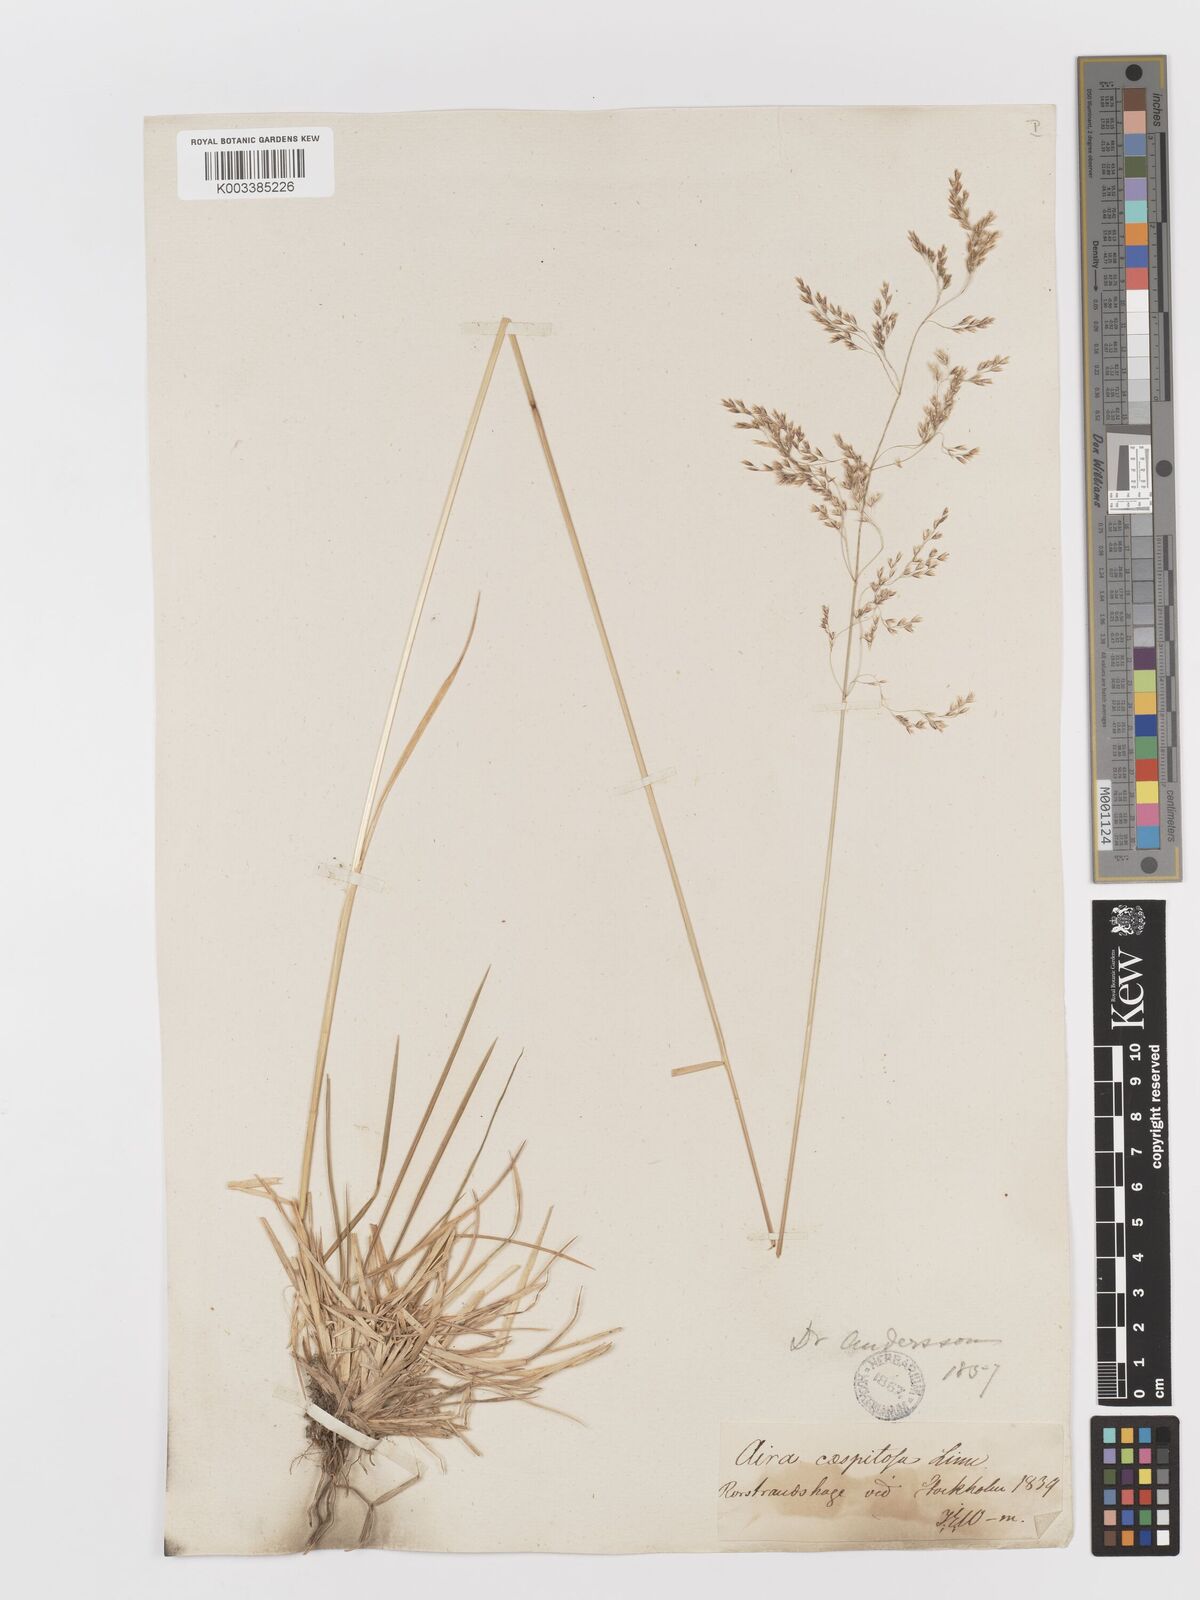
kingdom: Plantae
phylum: Tracheophyta
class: Liliopsida
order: Poales
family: Poaceae
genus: Deschampsia
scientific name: Deschampsia cespitosa
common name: Tufted hair-grass
